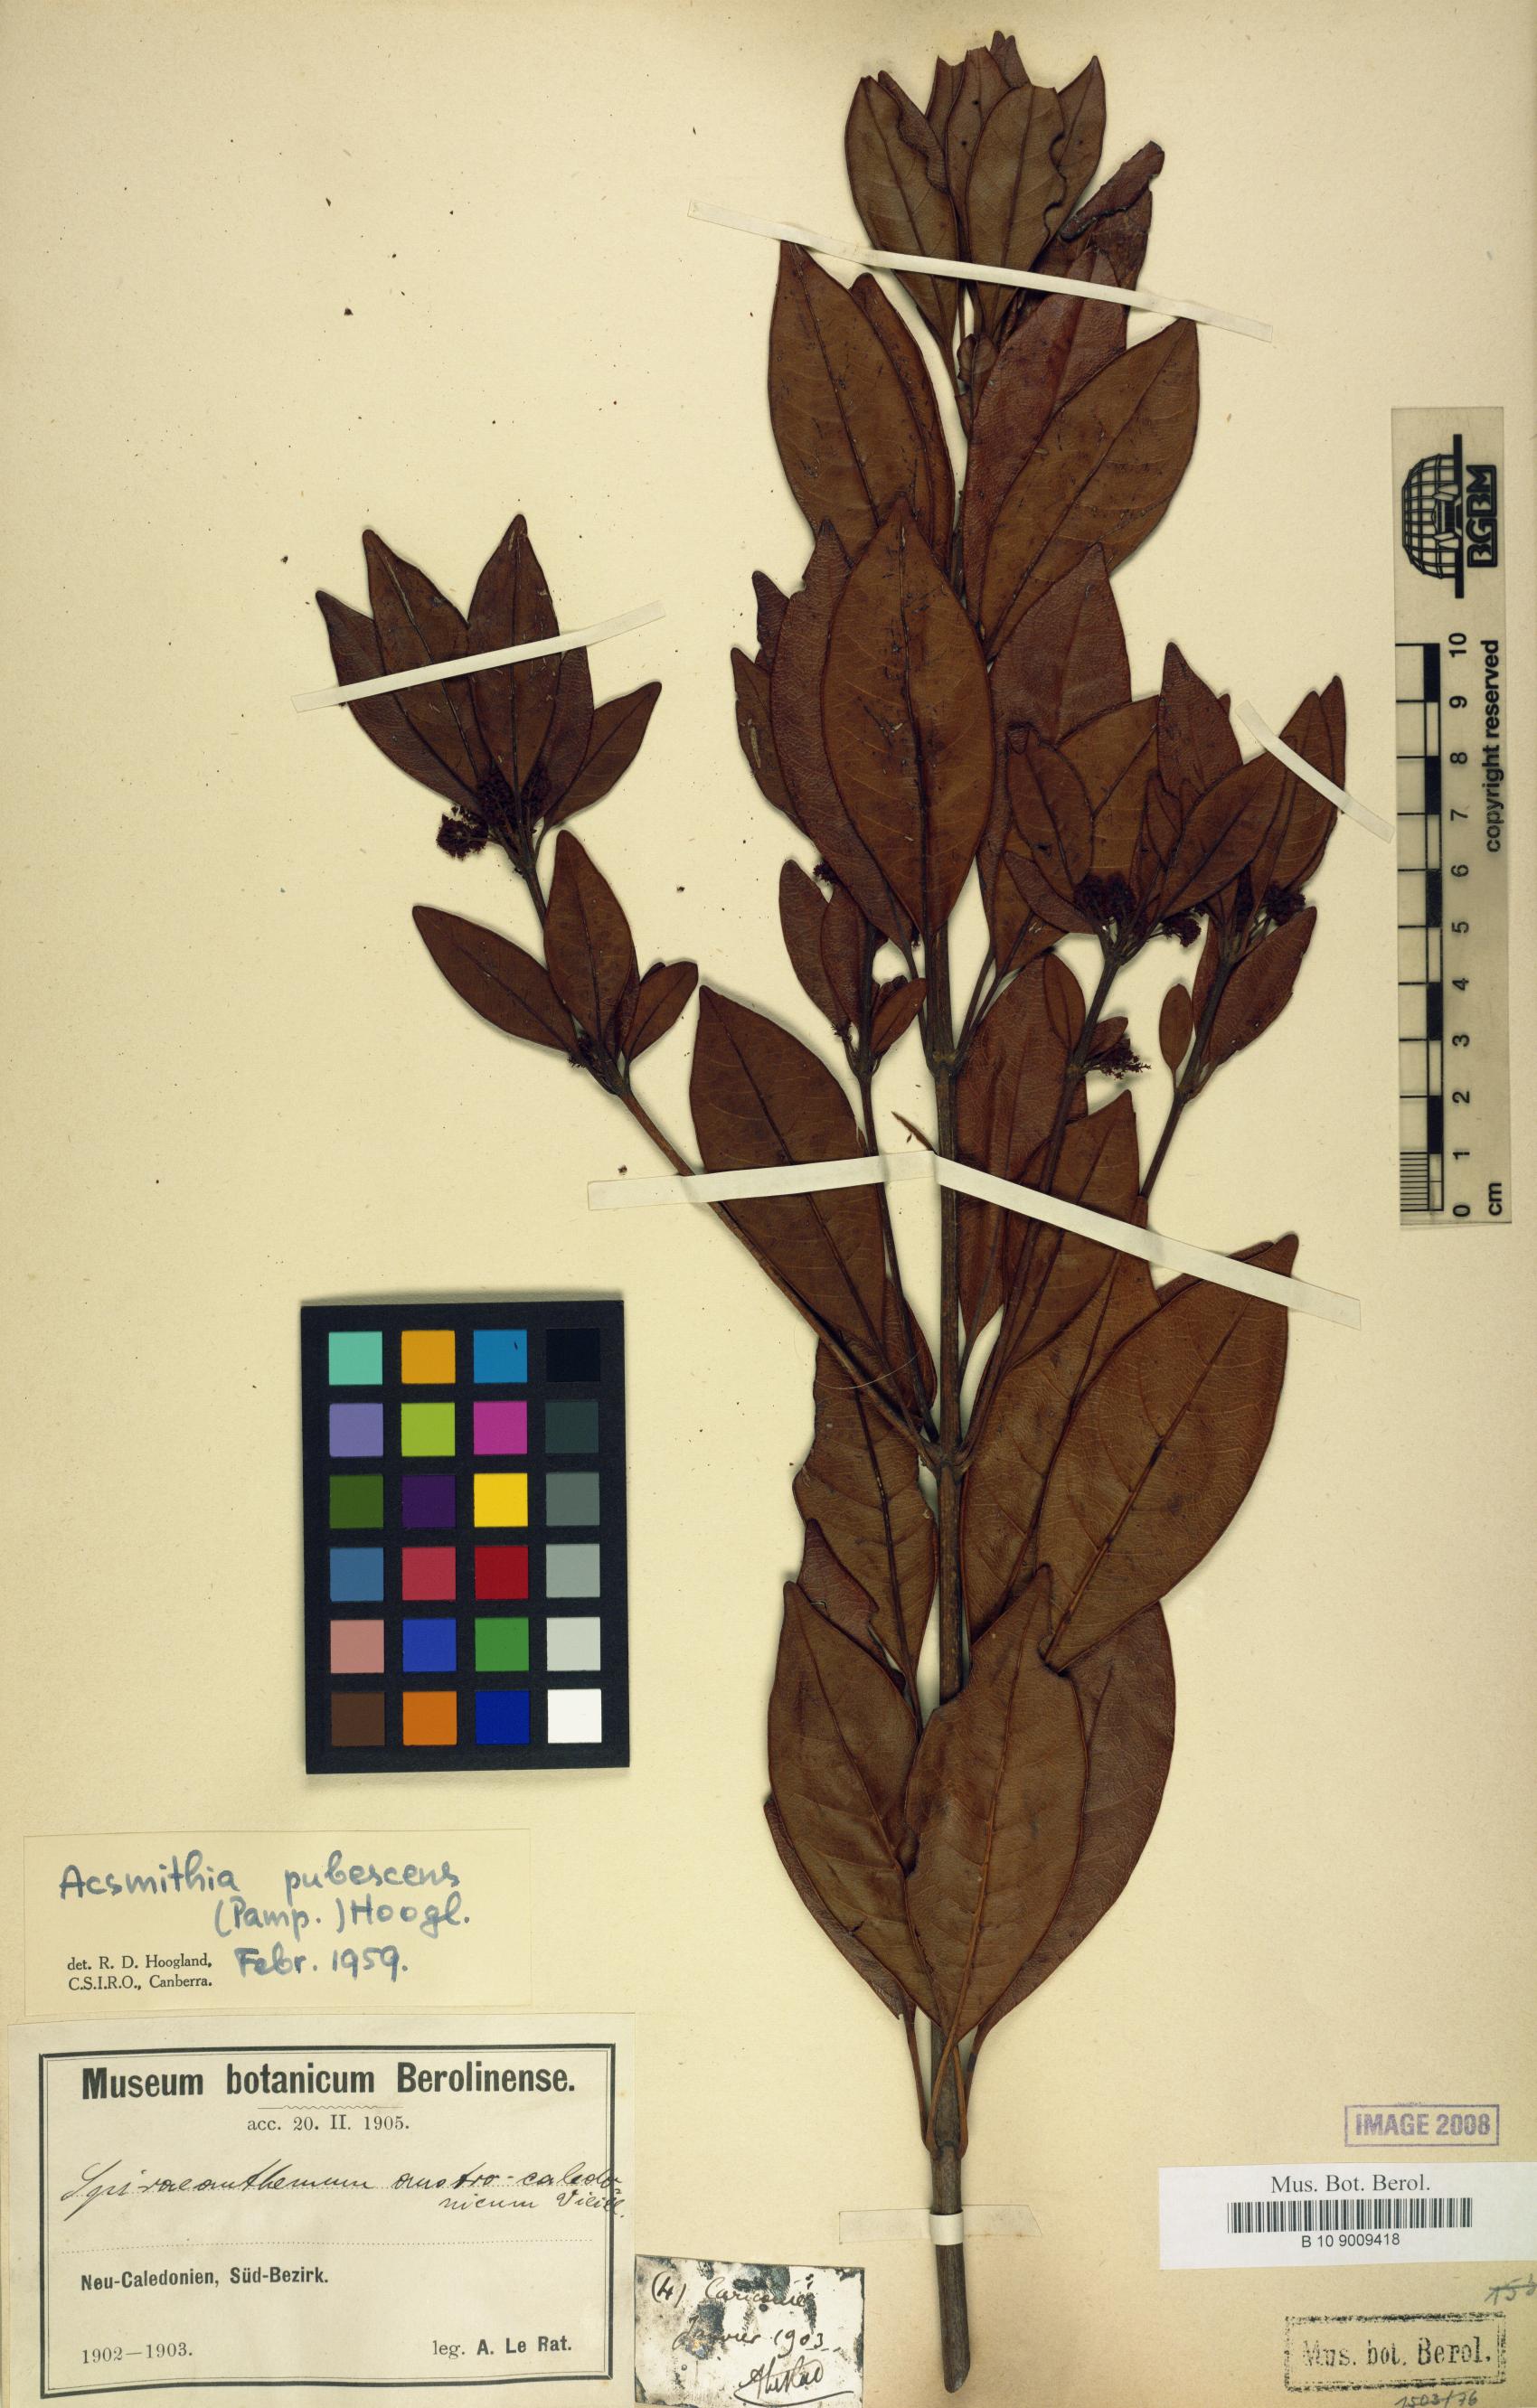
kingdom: Plantae
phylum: Tracheophyta
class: Magnoliopsida
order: Oxalidales
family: Cunoniaceae
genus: Spiraeanthemum
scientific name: Spiraeanthemum pubescens
